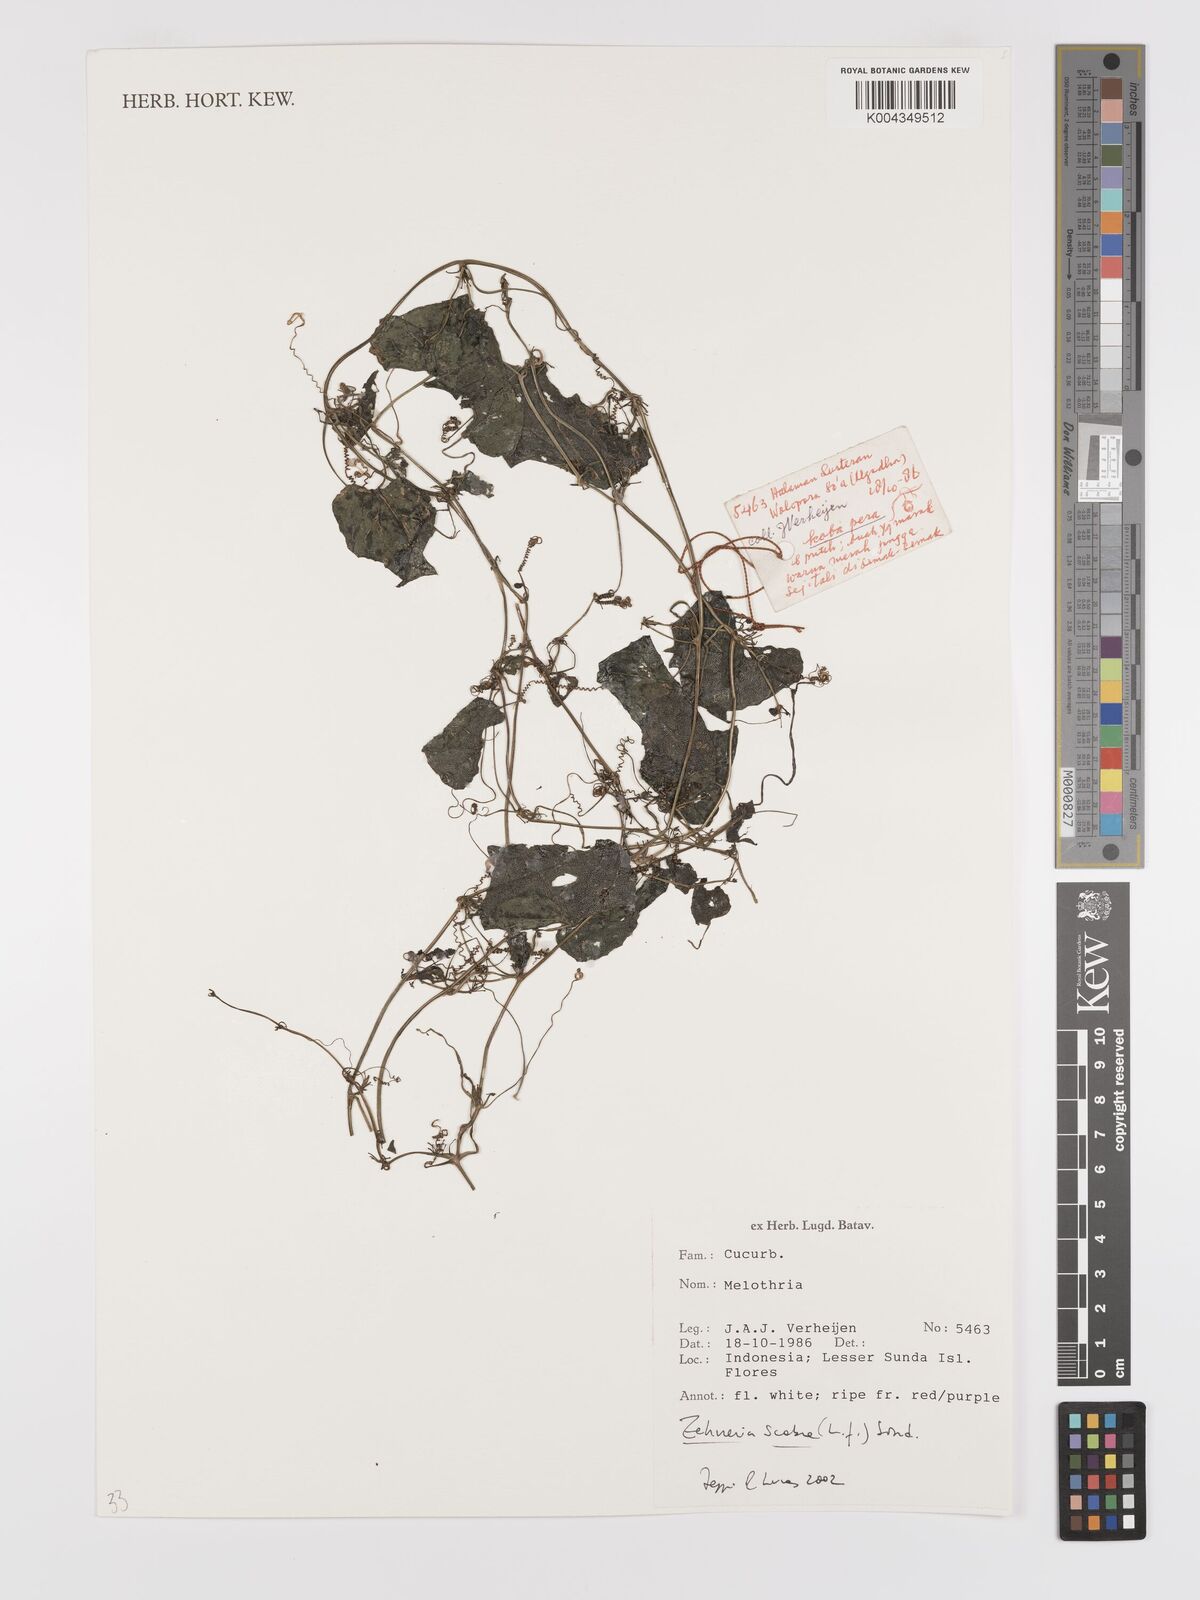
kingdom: Plantae
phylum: Tracheophyta
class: Magnoliopsida
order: Cucurbitales
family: Cucurbitaceae
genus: Zehneria
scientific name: Zehneria scabra
